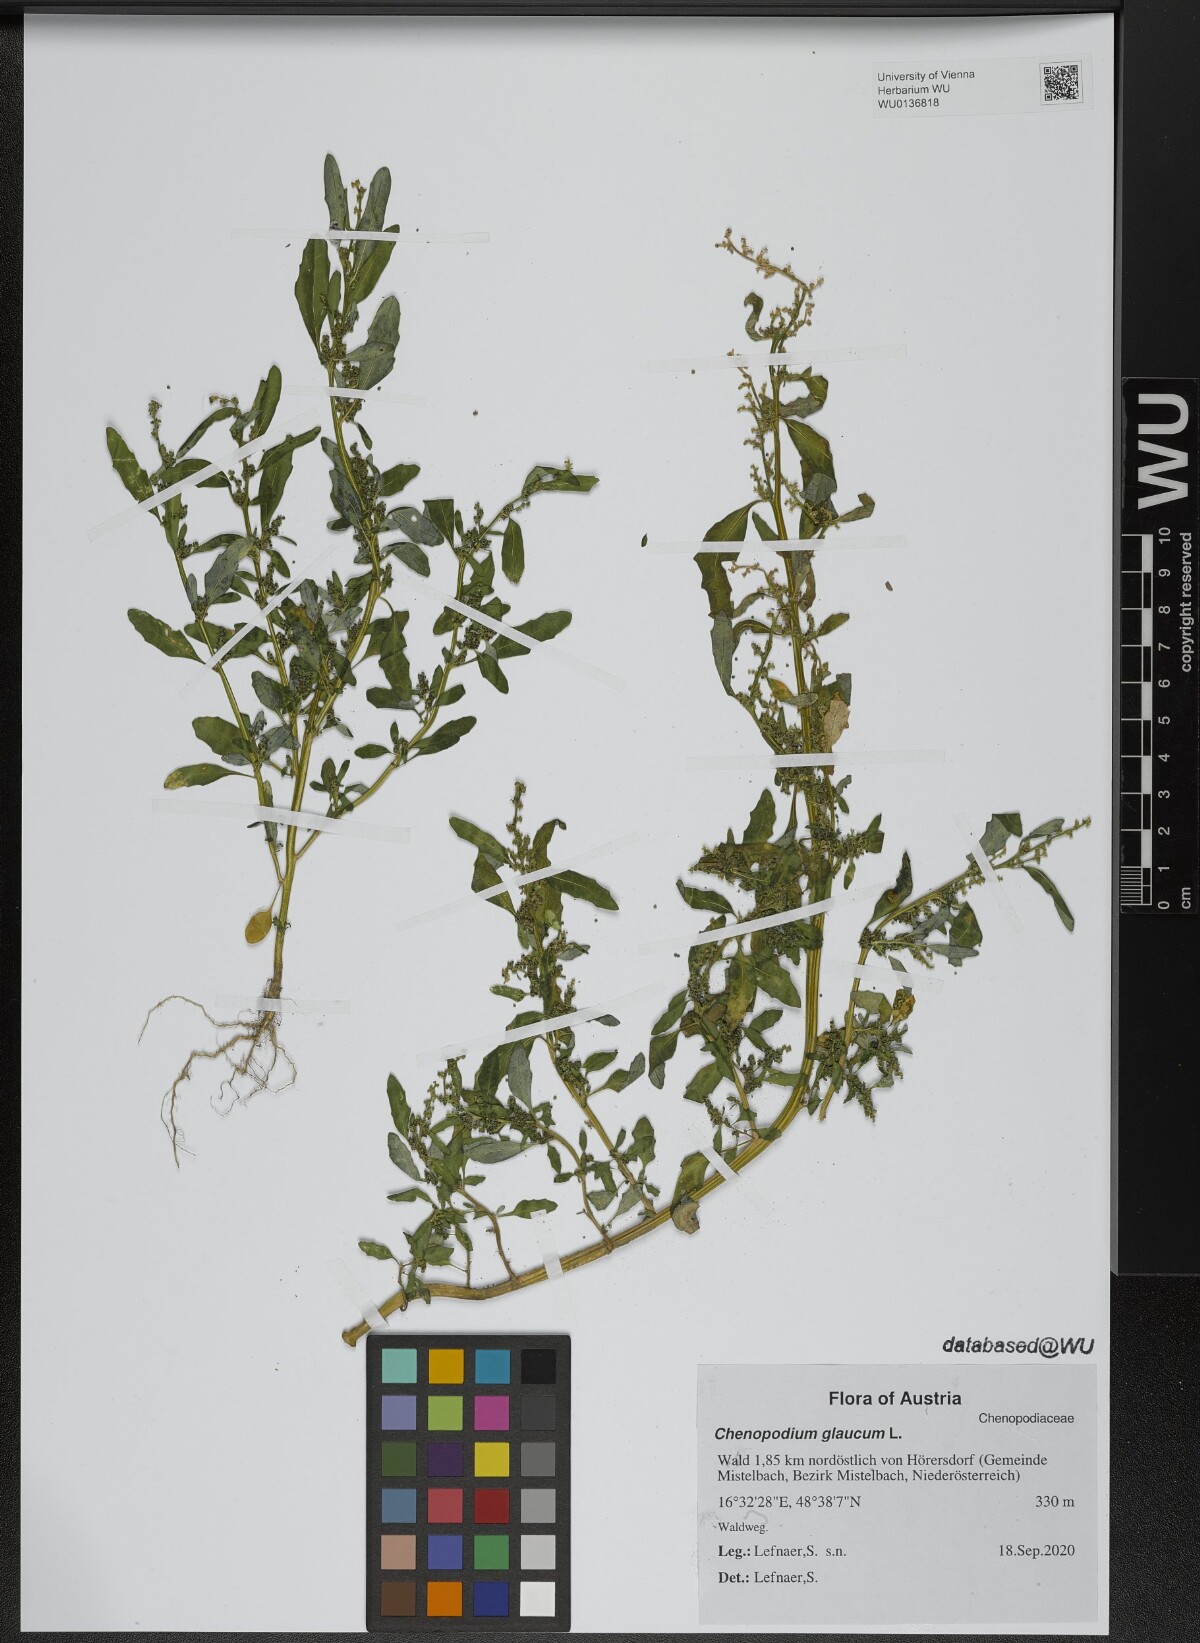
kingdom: Plantae
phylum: Tracheophyta
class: Magnoliopsida
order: Caryophyllales
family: Amaranthaceae
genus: Oxybasis
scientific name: Oxybasis glauca
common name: Glaucous goosefoot
